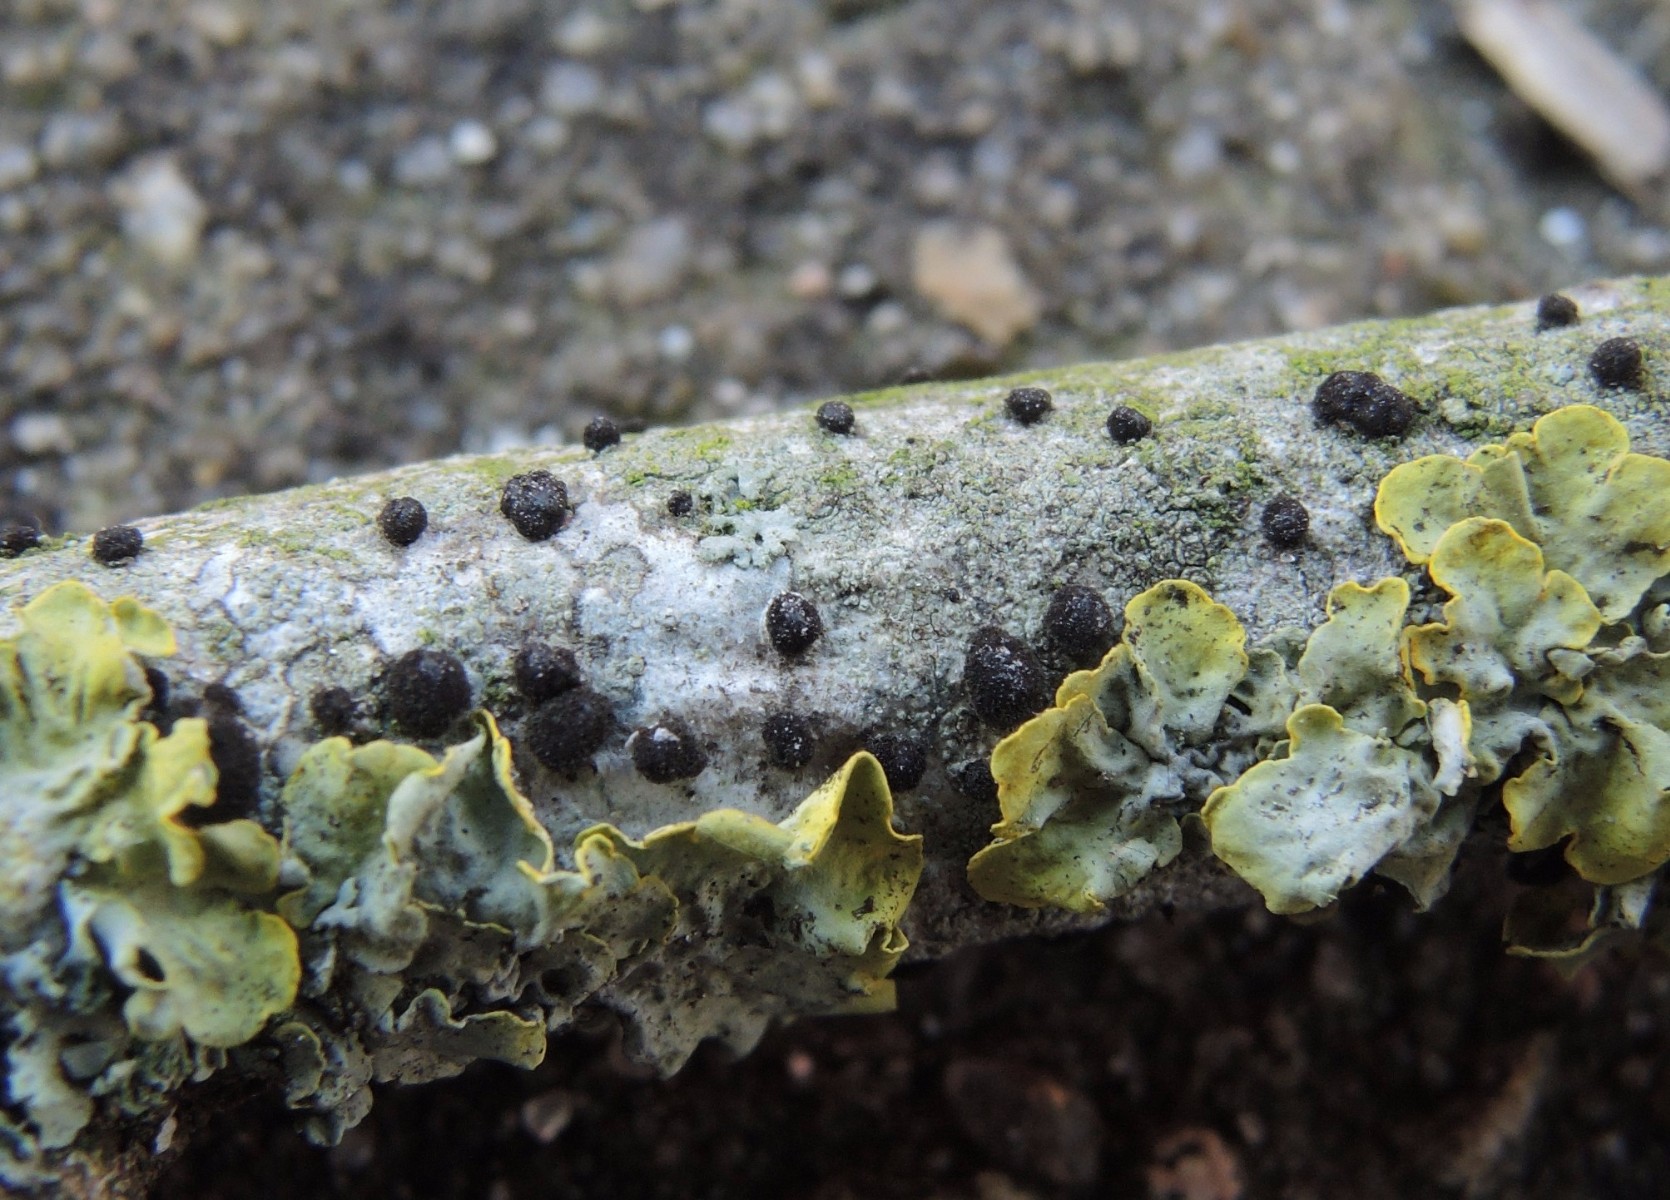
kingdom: Fungi
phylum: Ascomycota
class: Dothideomycetes
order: Pleosporales
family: Massarinaceae
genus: Helminthosporium
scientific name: Helminthosporium oligosporum
